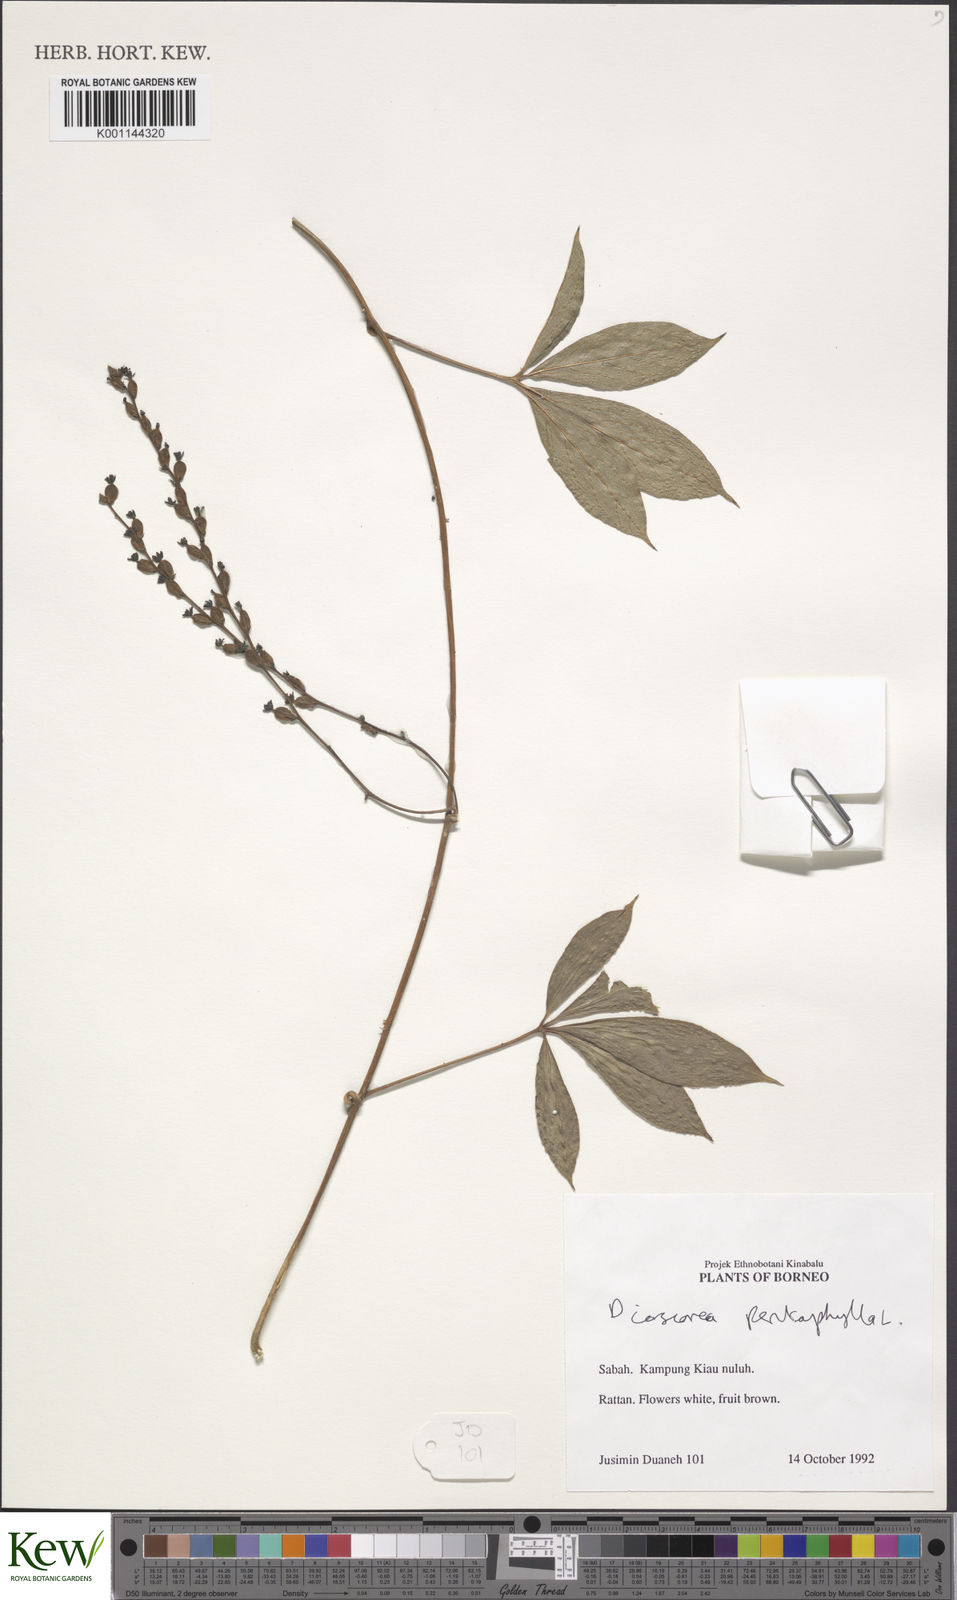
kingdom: Plantae
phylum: Tracheophyta
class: Liliopsida
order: Dioscoreales
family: Dioscoreaceae
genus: Dioscorea
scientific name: Dioscorea pentaphylla
